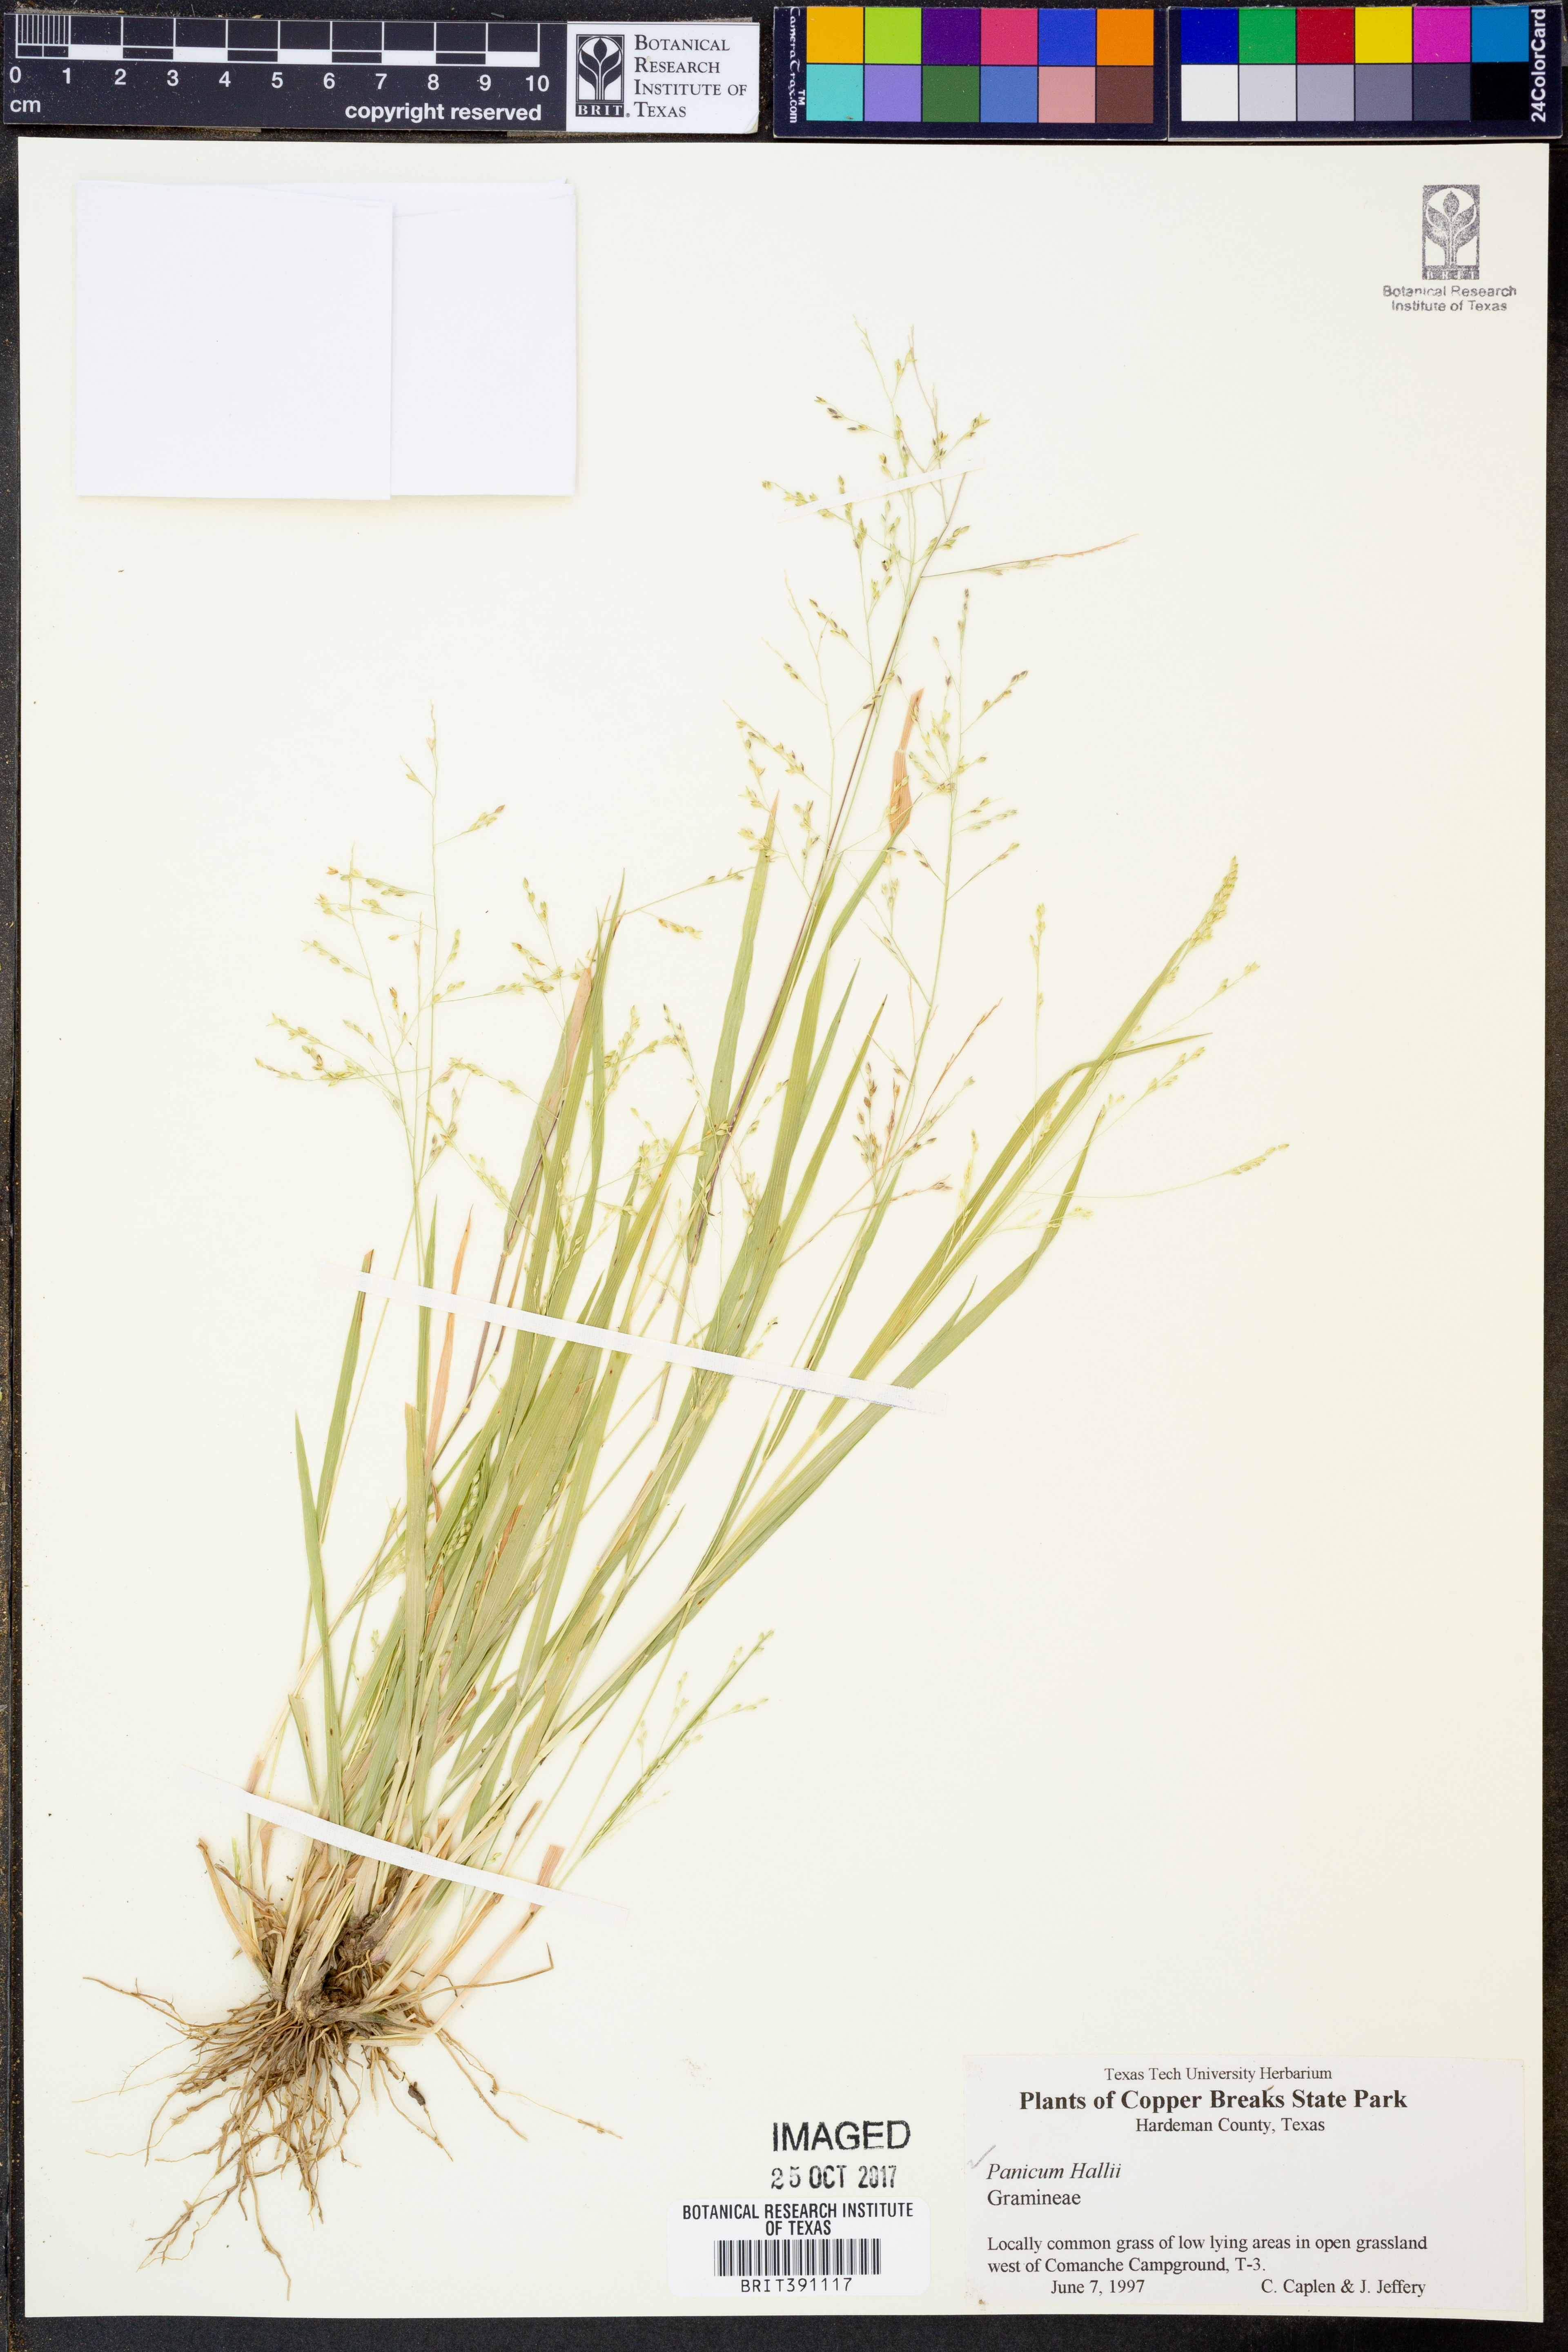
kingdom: Plantae
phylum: Tracheophyta
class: Liliopsida
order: Poales
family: Poaceae
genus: Panicum
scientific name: Panicum hallii
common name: Hall's witchgrass
